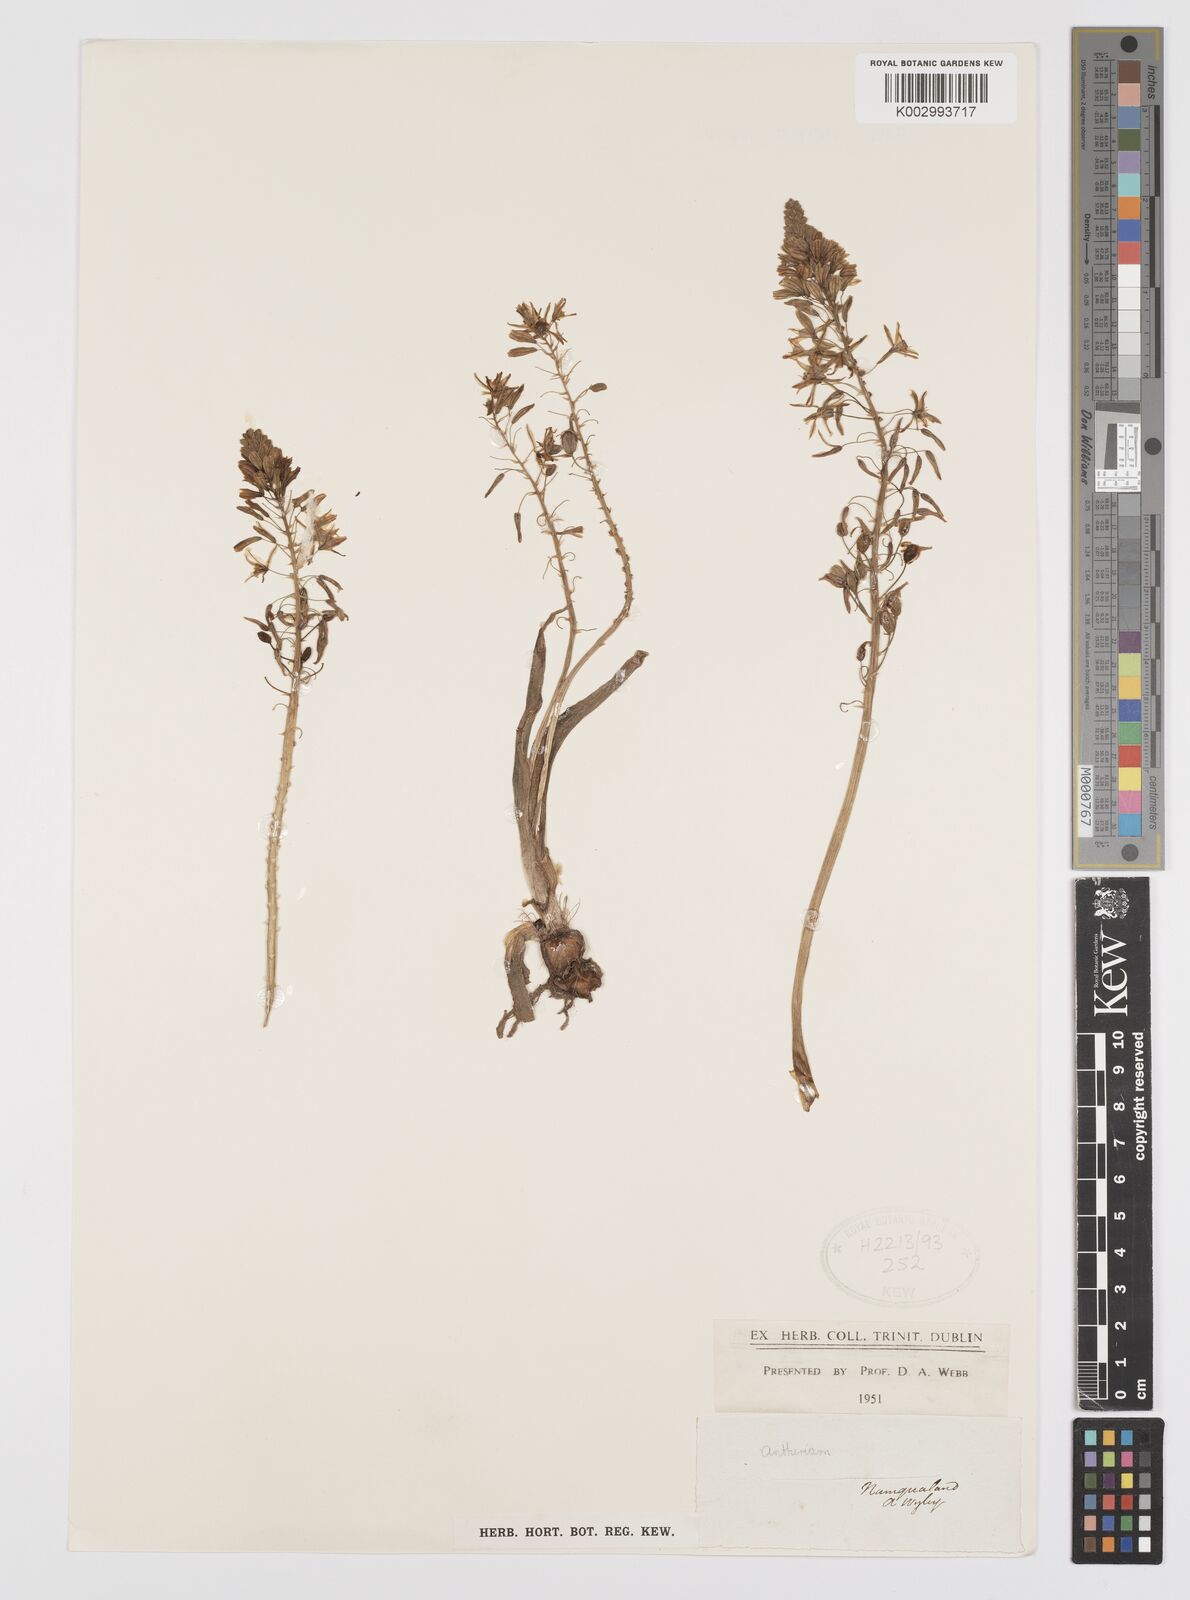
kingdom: Plantae
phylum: Tracheophyta
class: Liliopsida
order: Asparagales
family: Amaryllidaceae
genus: Crinum
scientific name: Crinum
